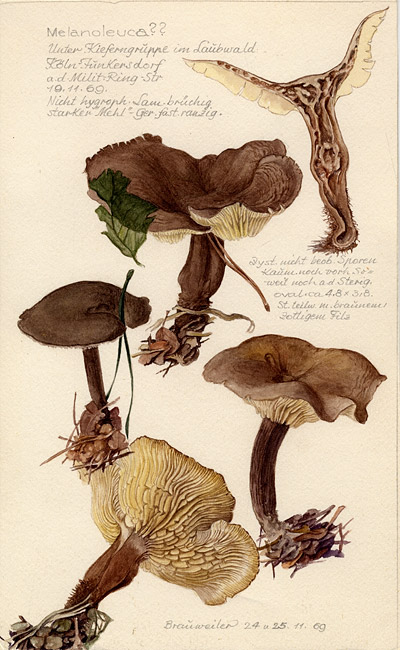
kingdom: Fungi
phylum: Basidiomycota
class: Agaricomycetes
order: Agaricales
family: Tricholomataceae
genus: Melanoleuca
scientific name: Melanoleuca
